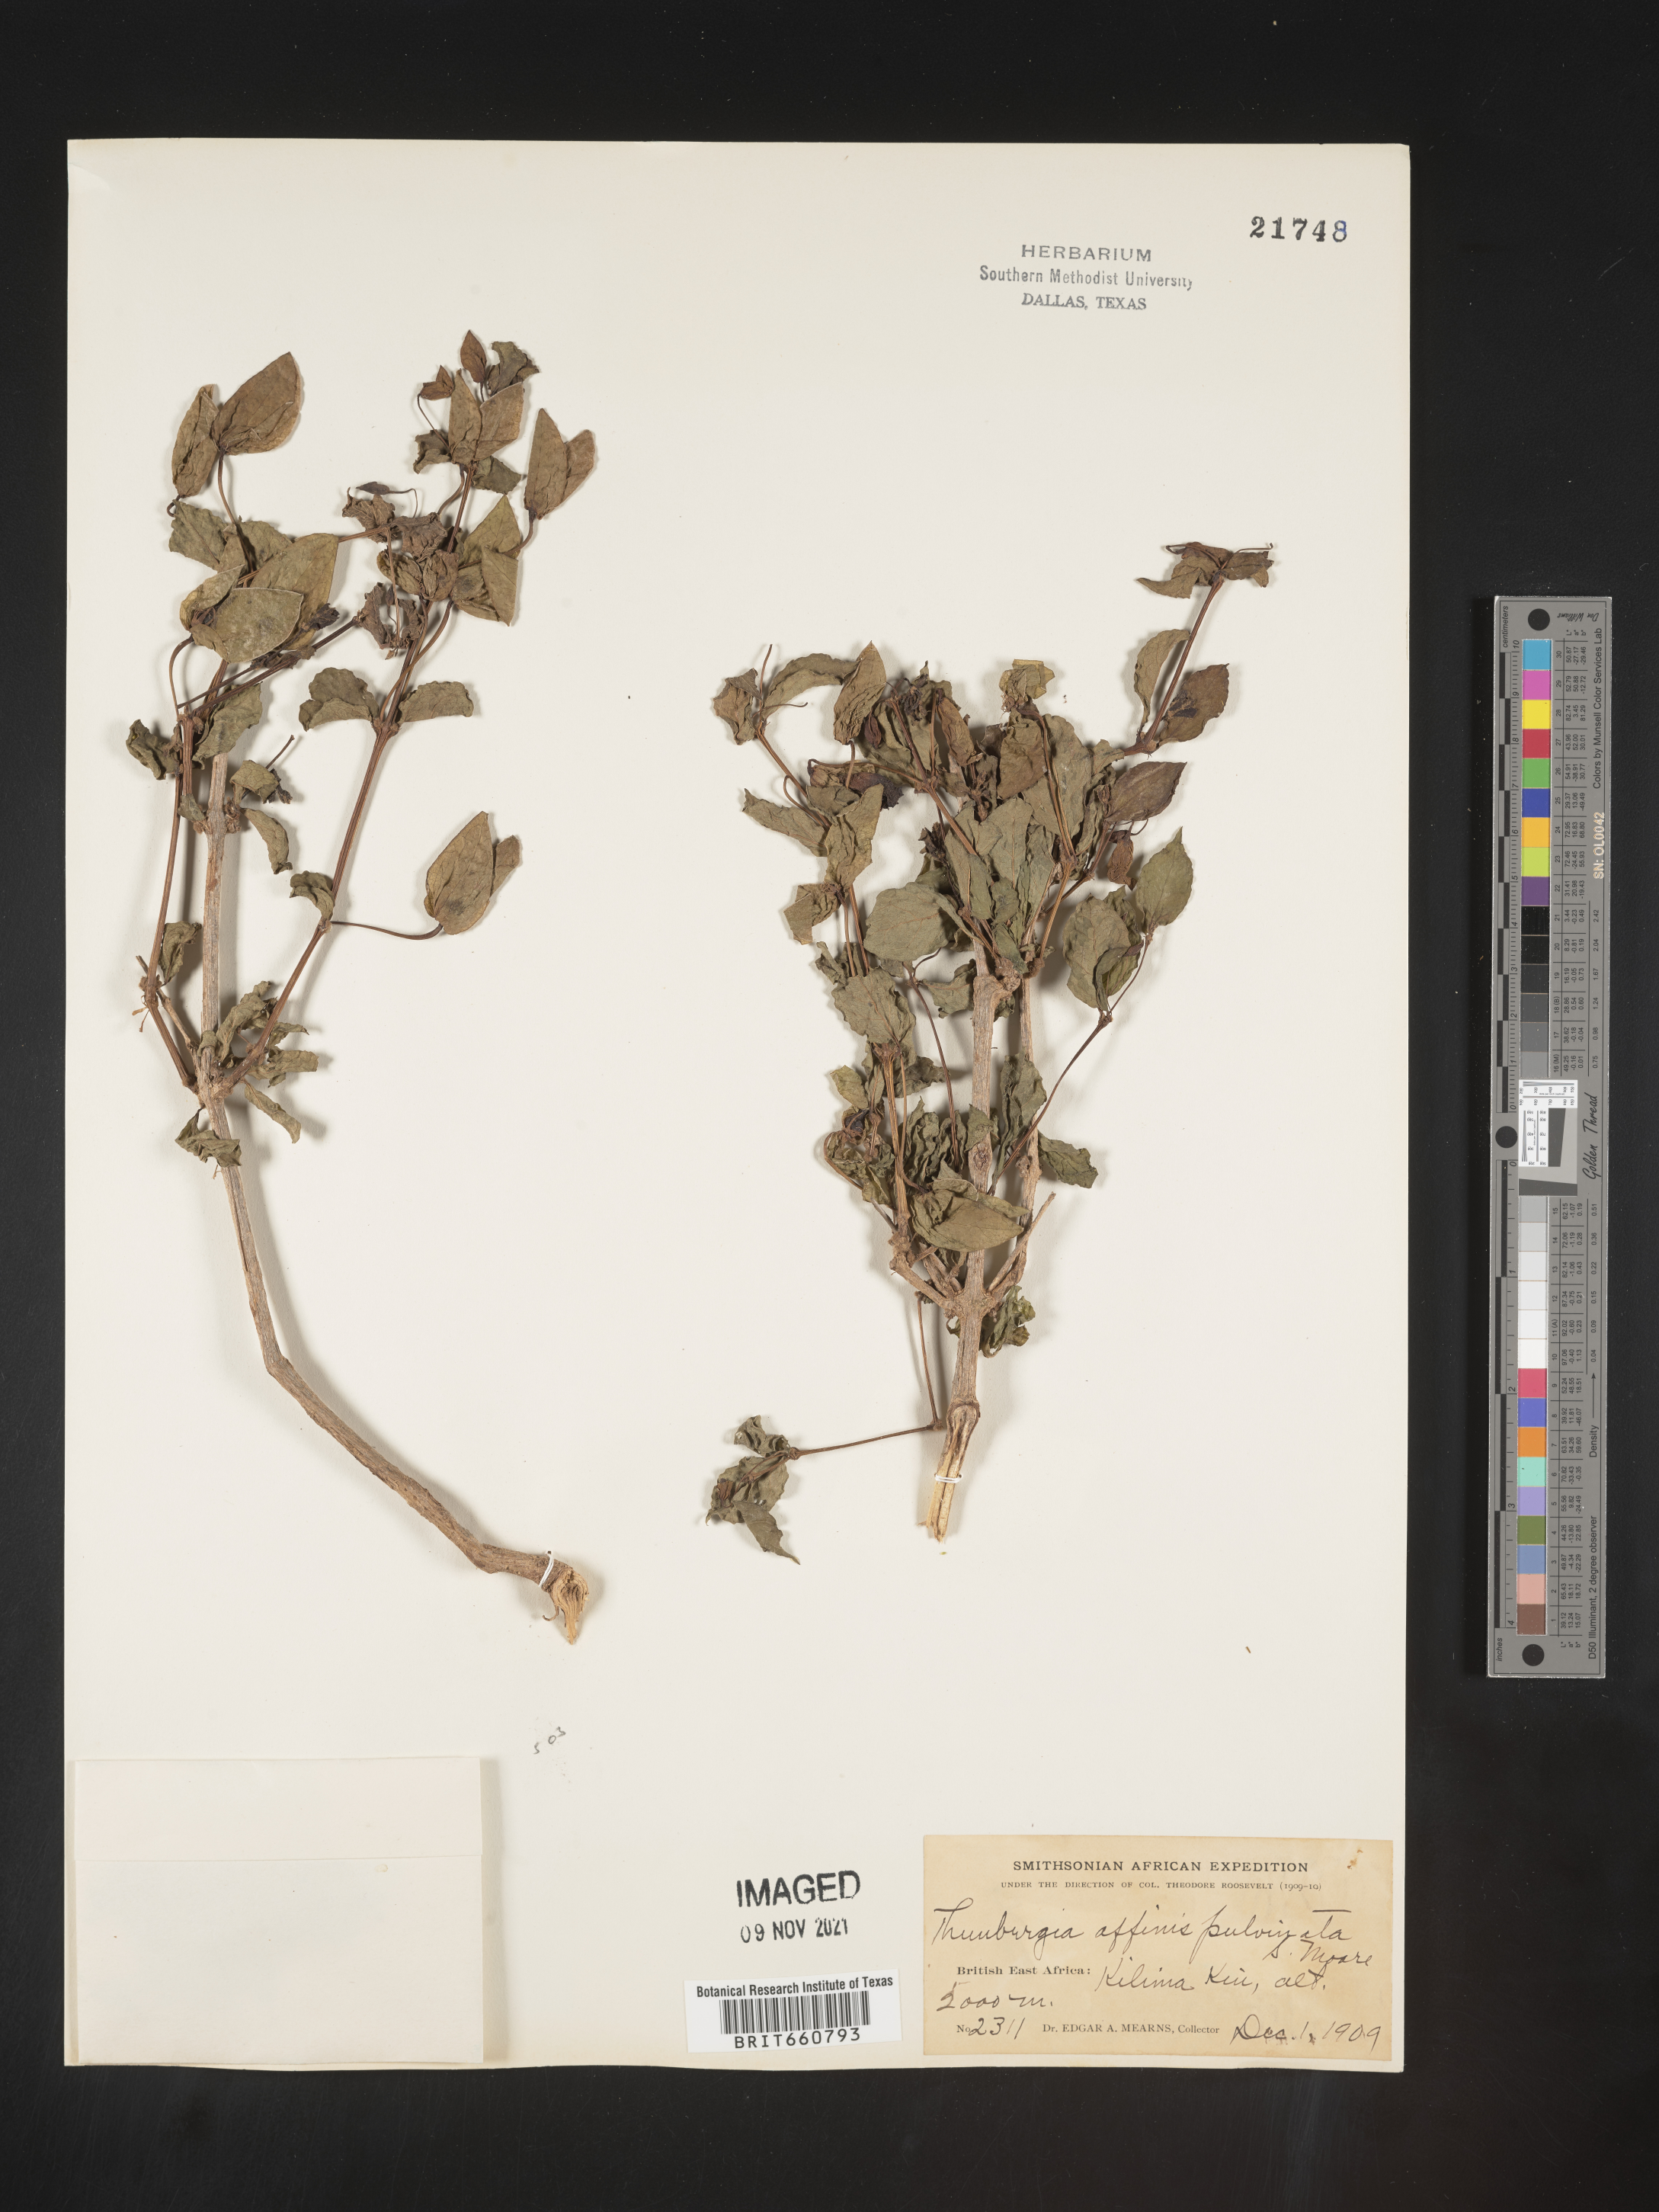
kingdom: Plantae
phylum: Tracheophyta
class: Magnoliopsida
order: Lamiales
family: Acanthaceae
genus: Thunbergia
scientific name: Thunbergia
